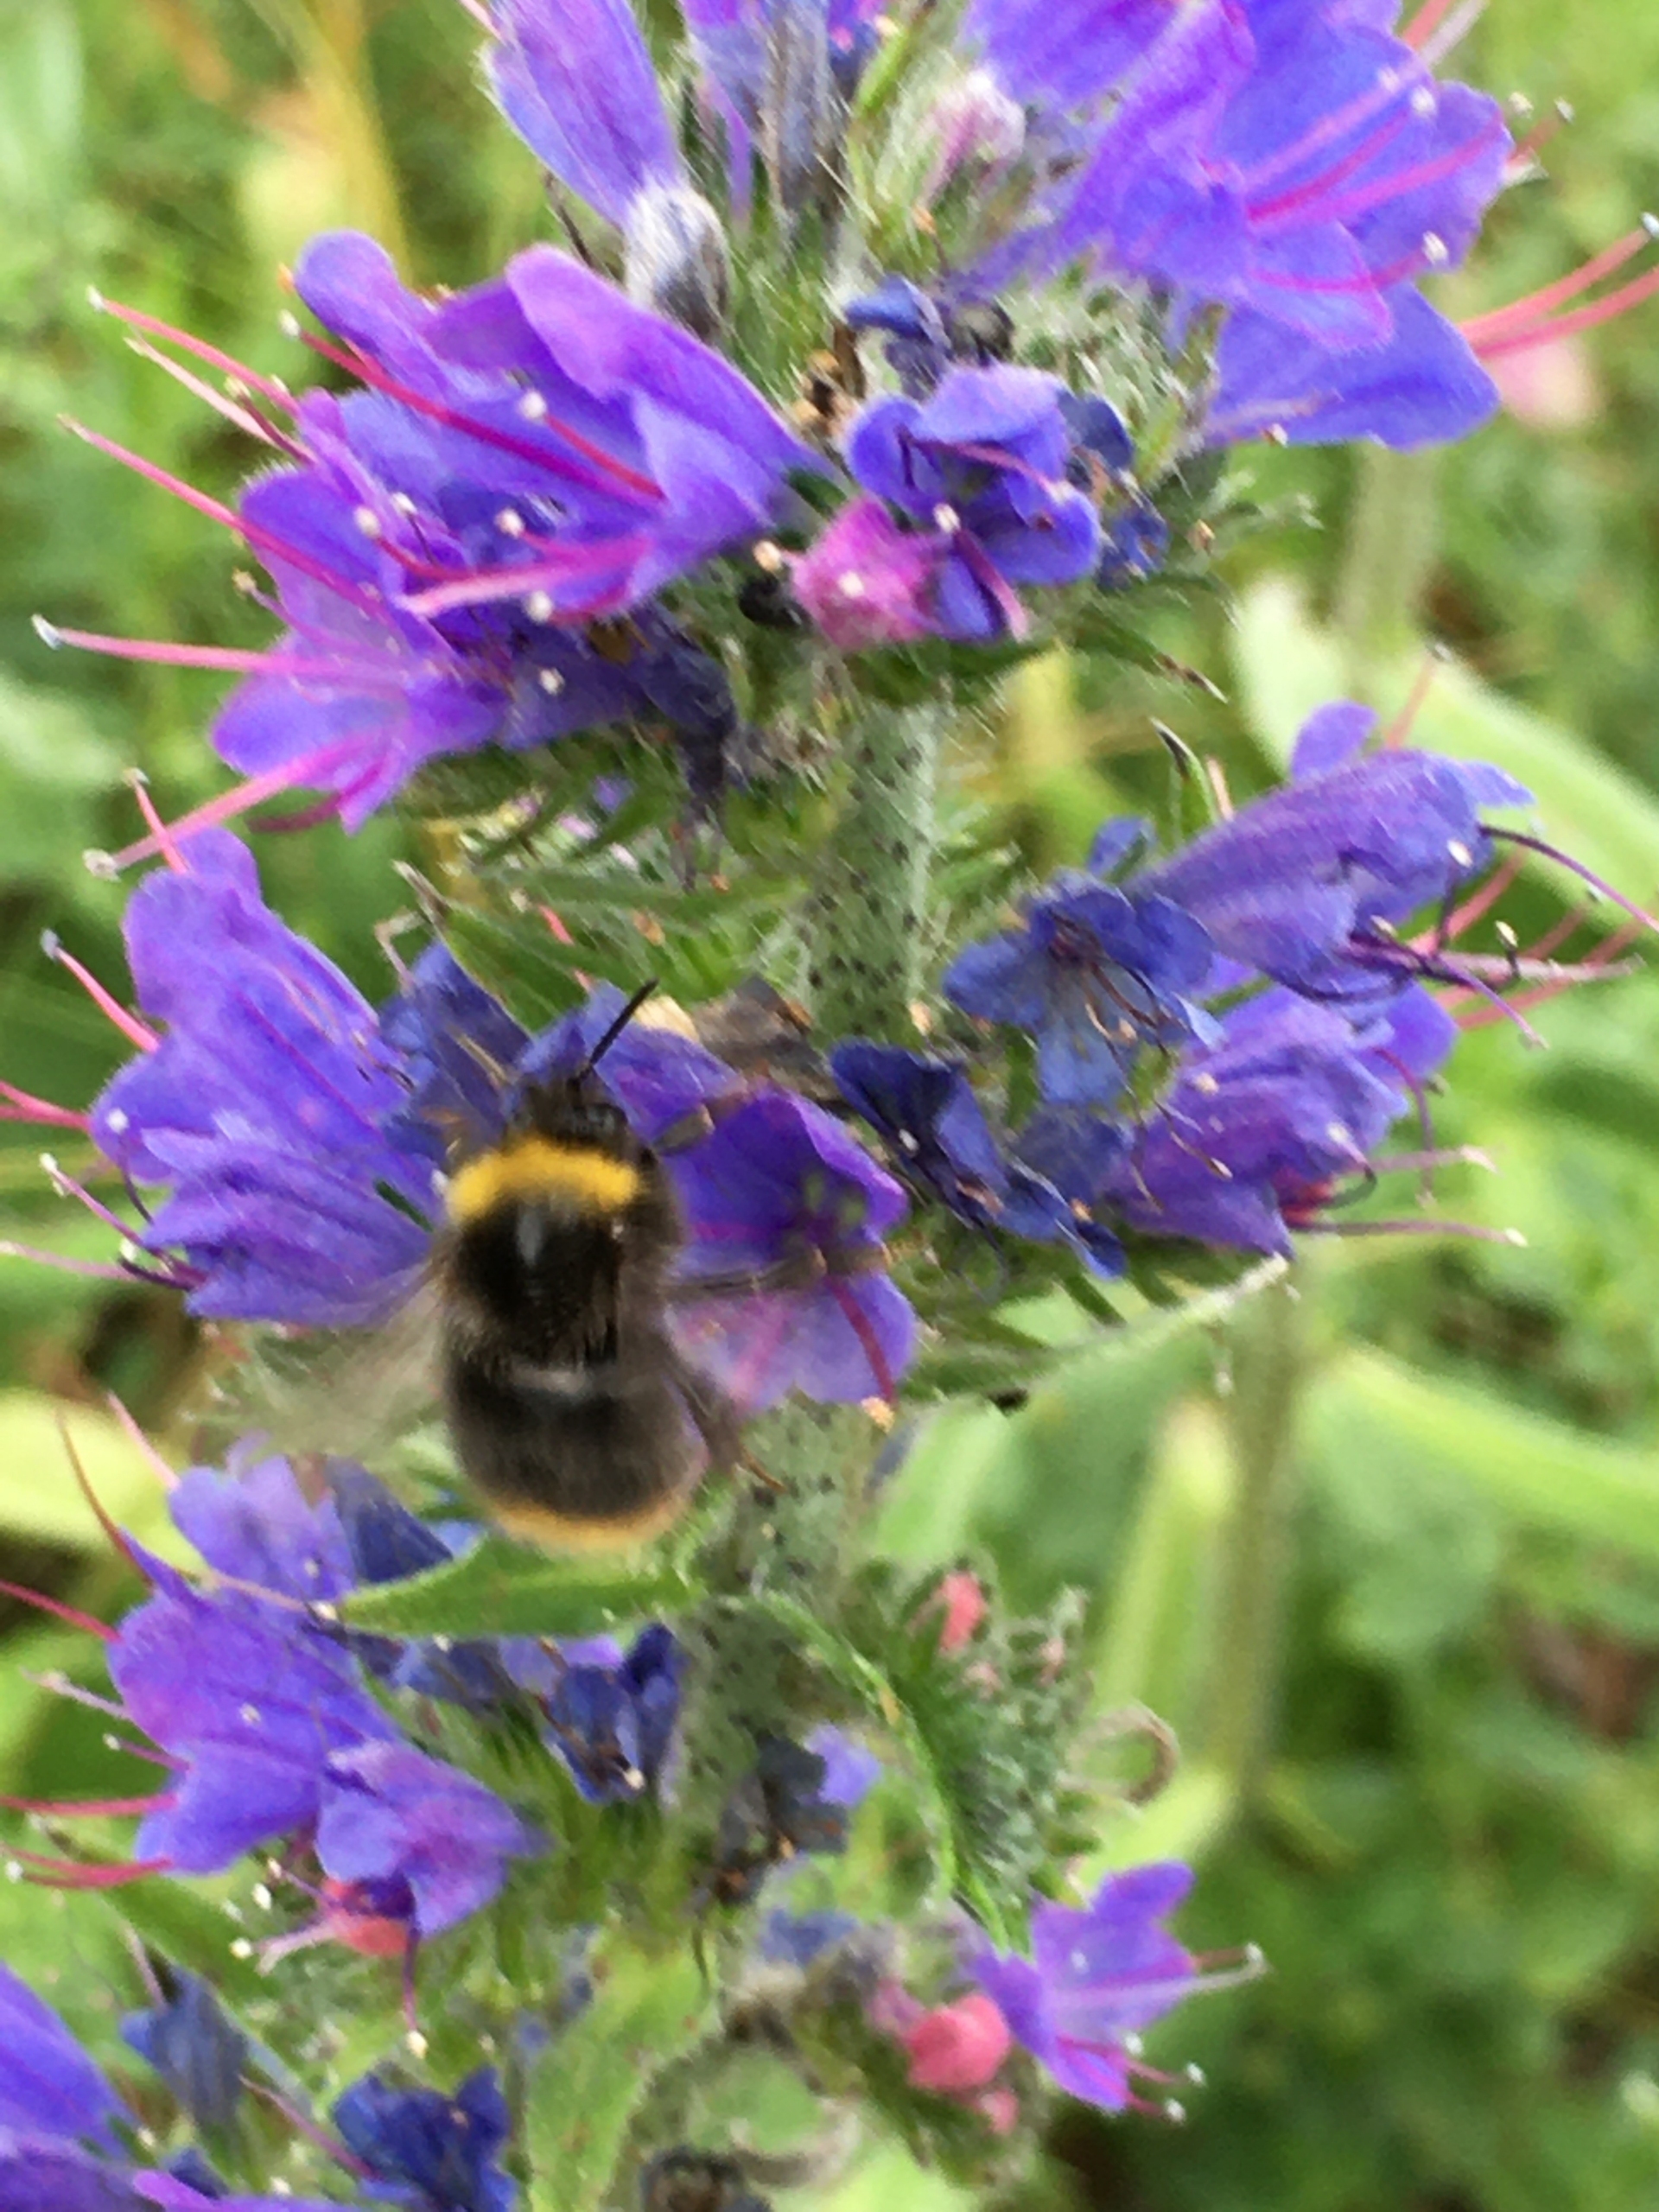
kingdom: Animalia
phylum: Arthropoda
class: Insecta
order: Hymenoptera
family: Apidae
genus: Bombus
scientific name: Bombus pratorum
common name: Lille skovhumle
